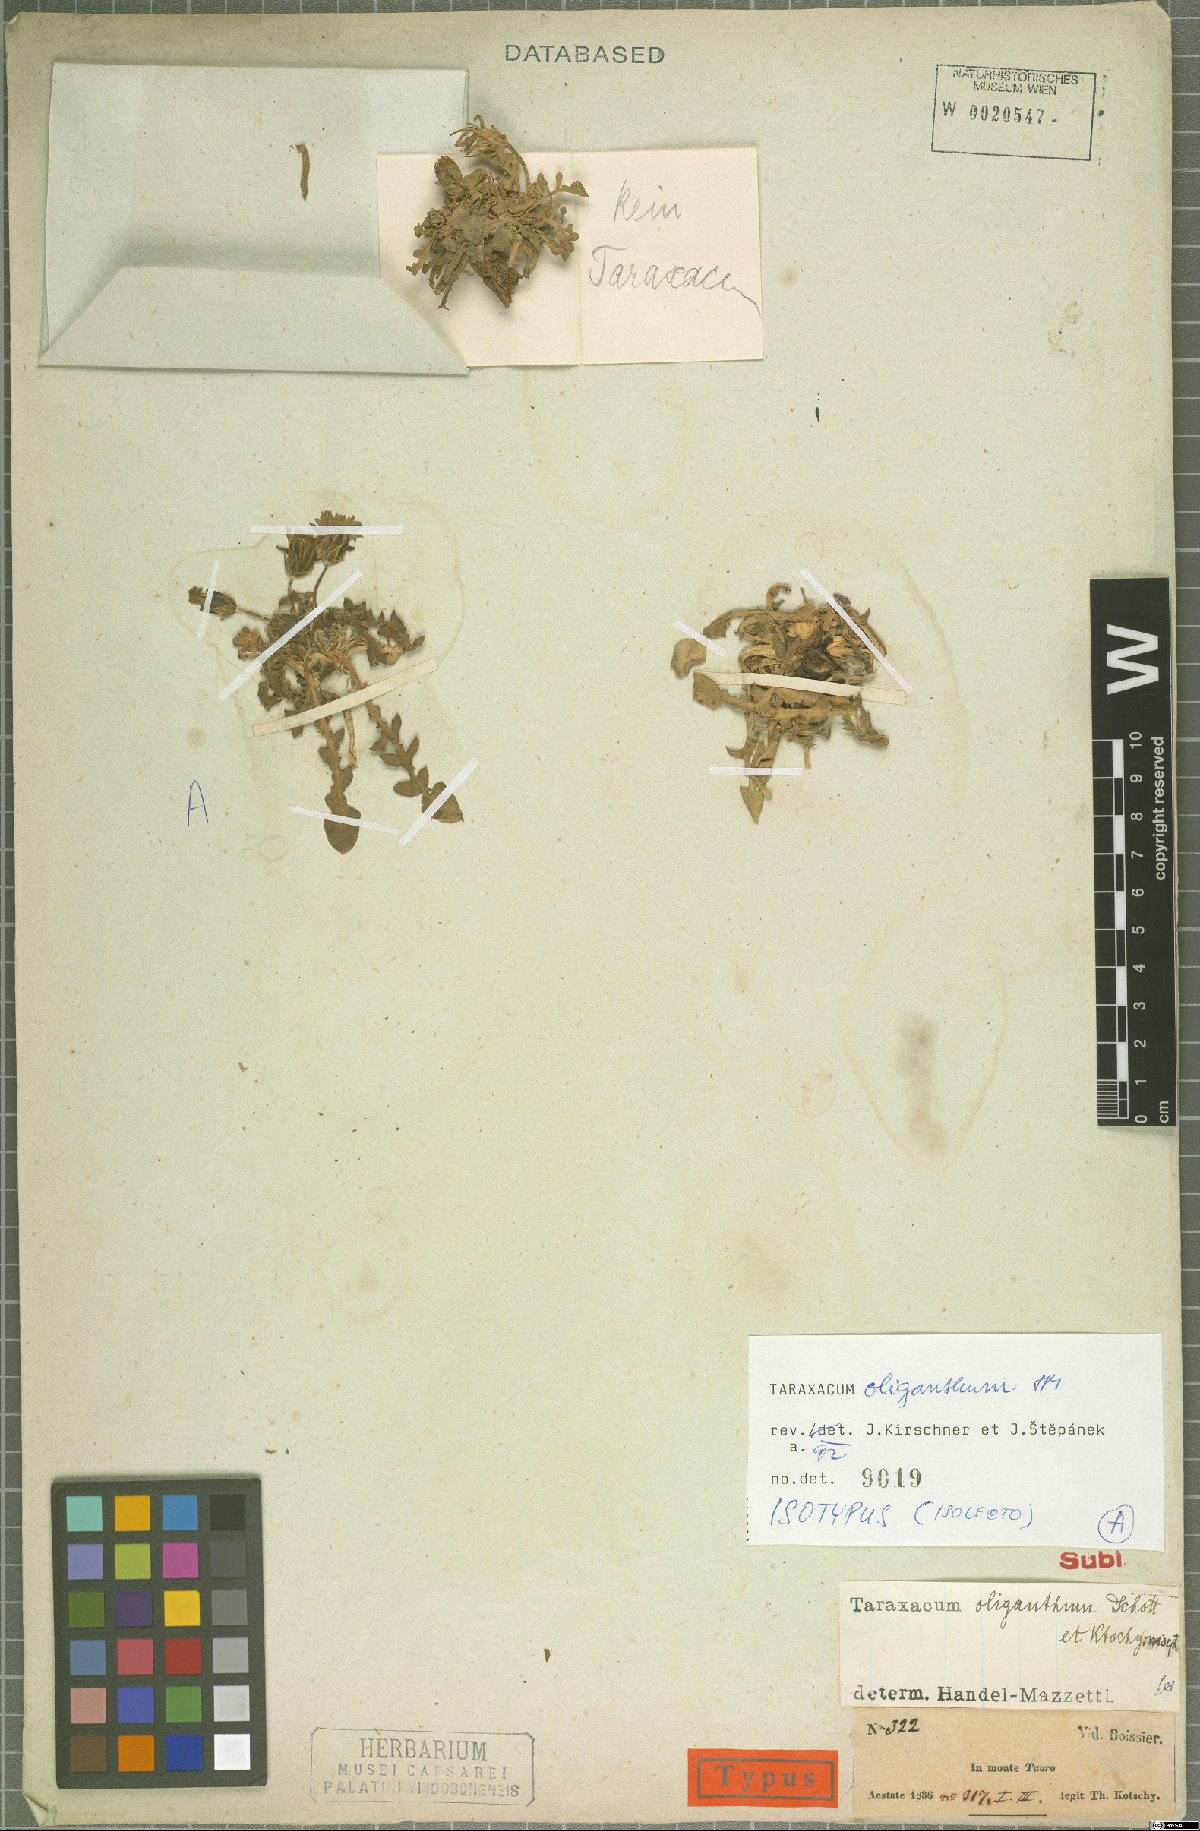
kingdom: Plantae
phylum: Tracheophyta
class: Magnoliopsida
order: Asterales
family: Asteraceae
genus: Taraxacum
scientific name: Taraxacum oliganthum
